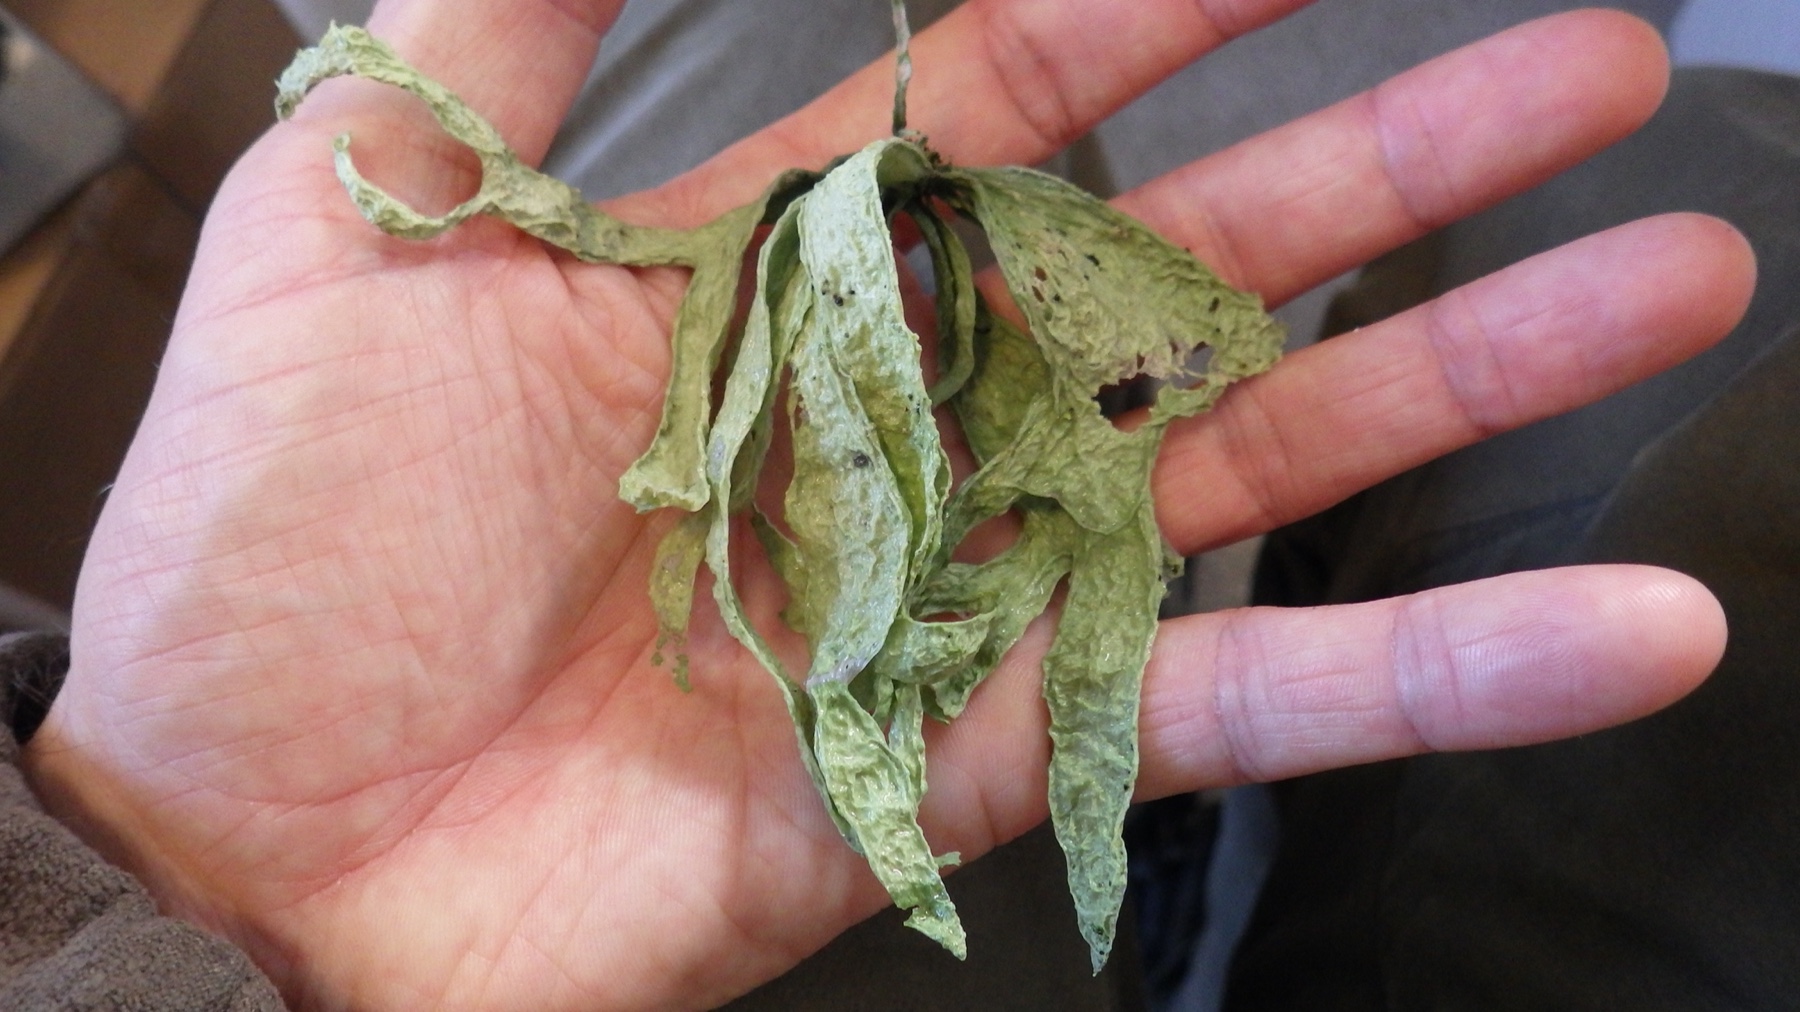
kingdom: Fungi
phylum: Ascomycota
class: Lecanoromycetes
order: Lecanorales
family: Ramalinaceae
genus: Ramalina
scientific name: Ramalina fraxinea
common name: stor grenlav
